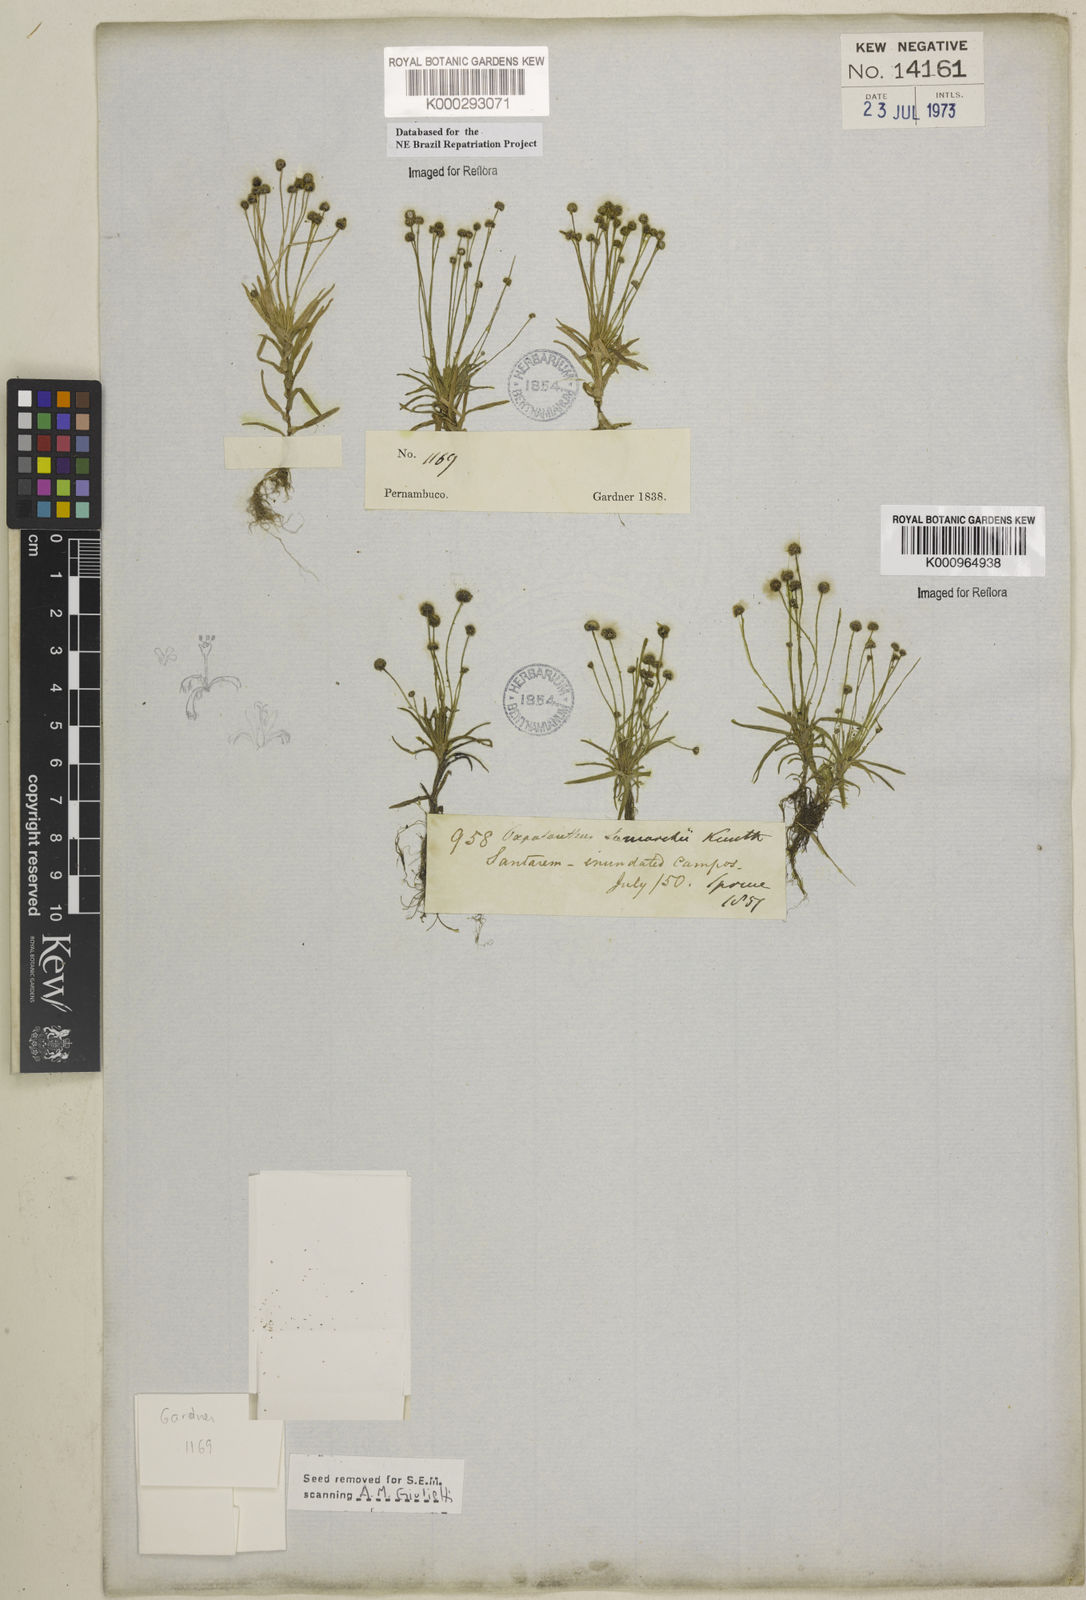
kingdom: Plantae
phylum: Tracheophyta
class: Liliopsida
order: Poales
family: Eriocaulaceae
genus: Paepalanthus
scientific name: Paepalanthus lamarckii
